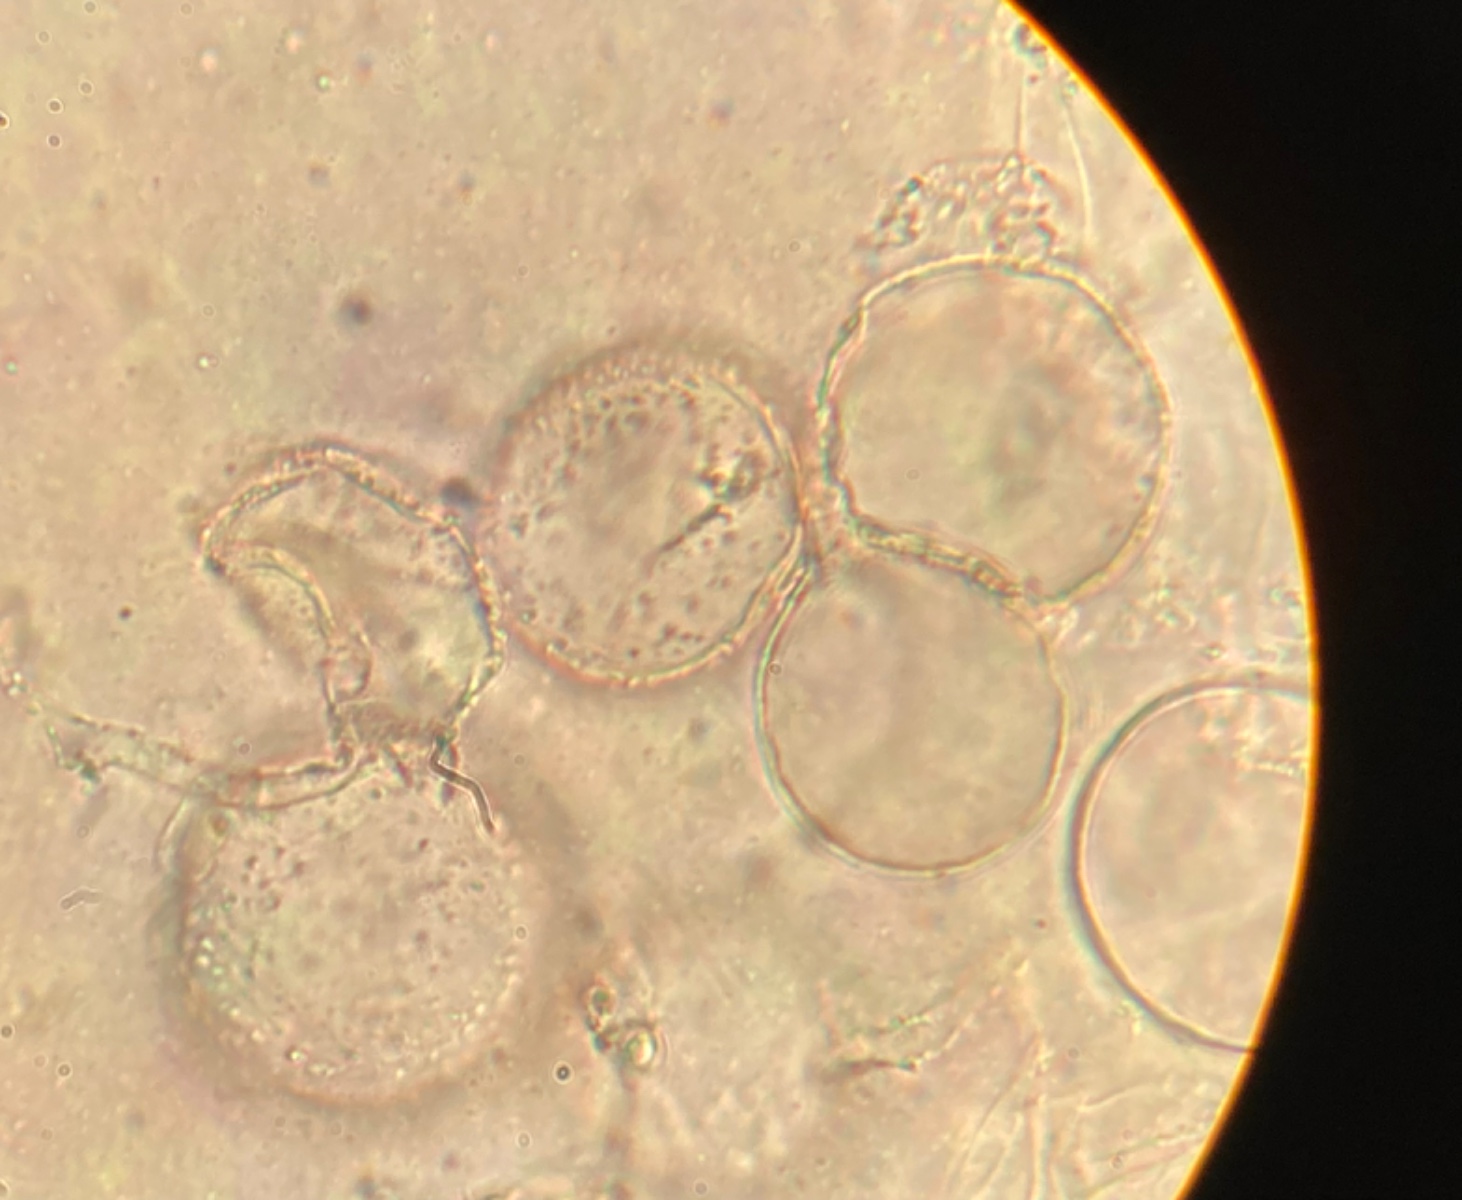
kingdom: Fungi
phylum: Basidiomycota
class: Agaricomycetes
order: Agaricales
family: Psathyrellaceae
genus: Coprinopsis
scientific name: Coprinopsis cortinata
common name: slør-blækhat
